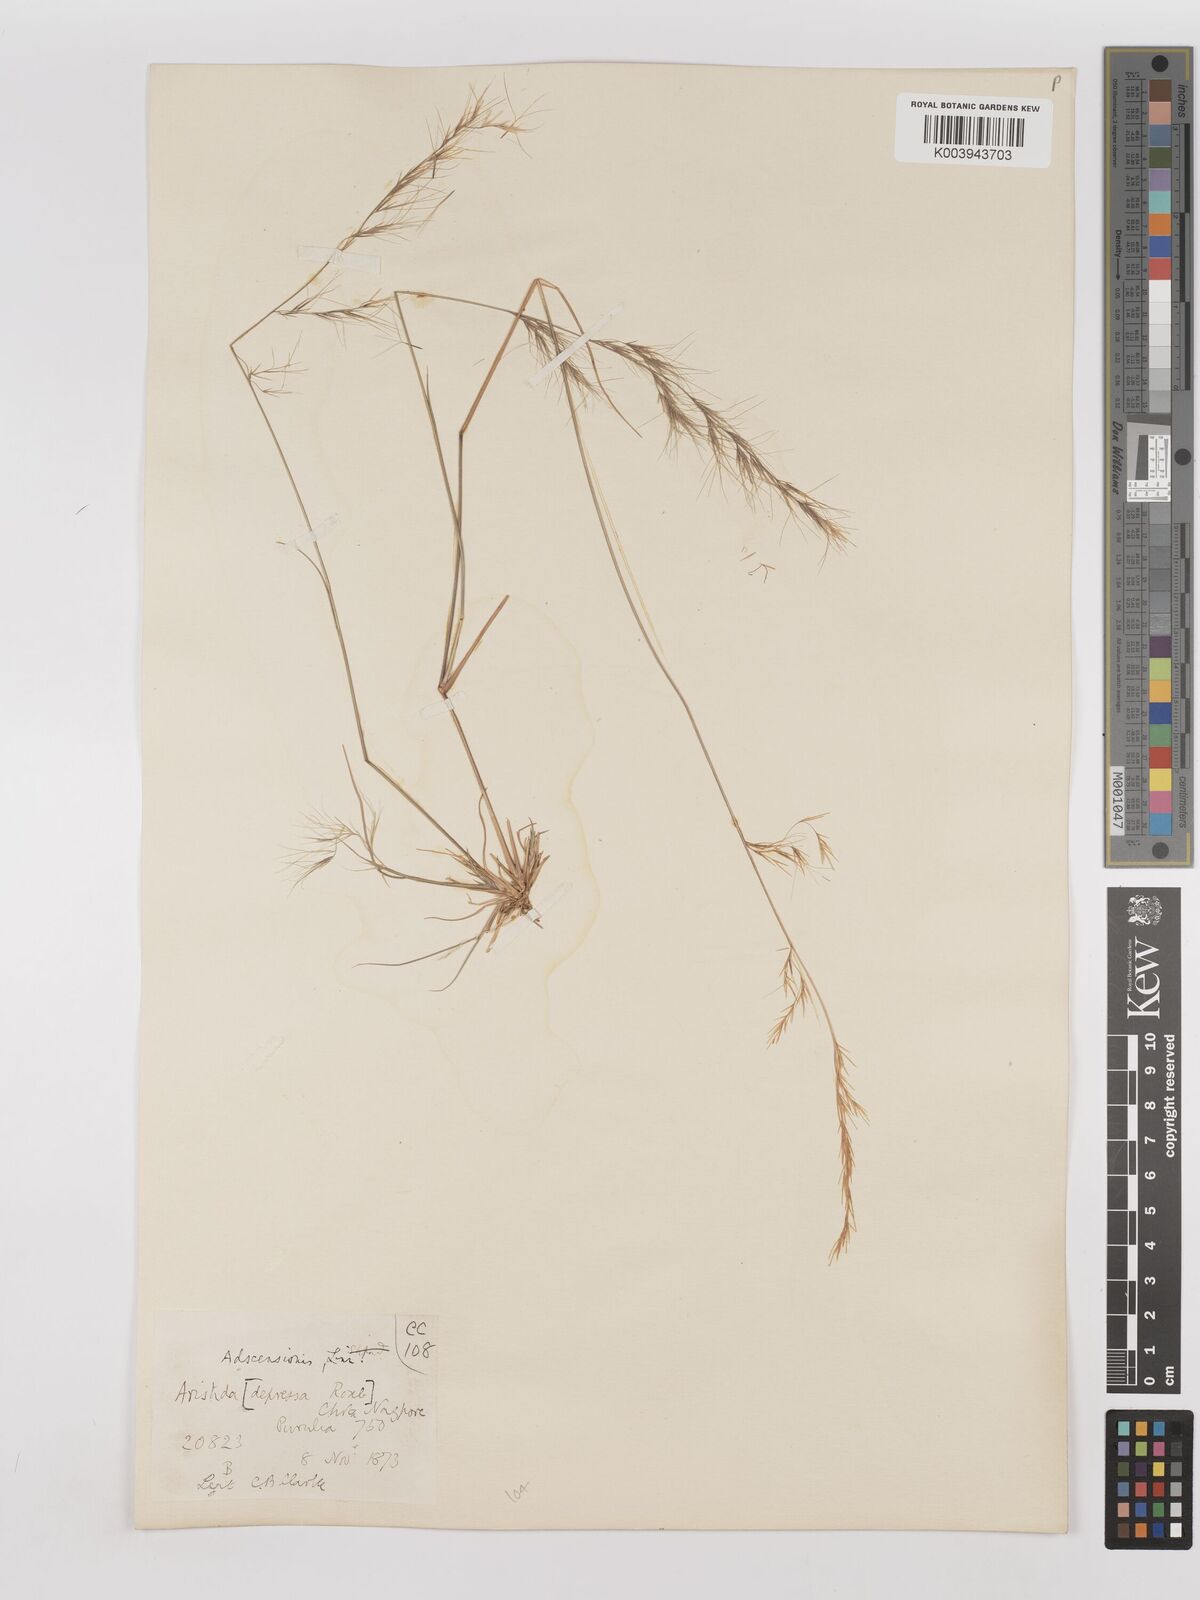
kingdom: Plantae
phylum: Tracheophyta
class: Liliopsida
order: Poales
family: Poaceae
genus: Aristida
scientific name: Aristida adscensionis
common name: Sixweeks threeawn
